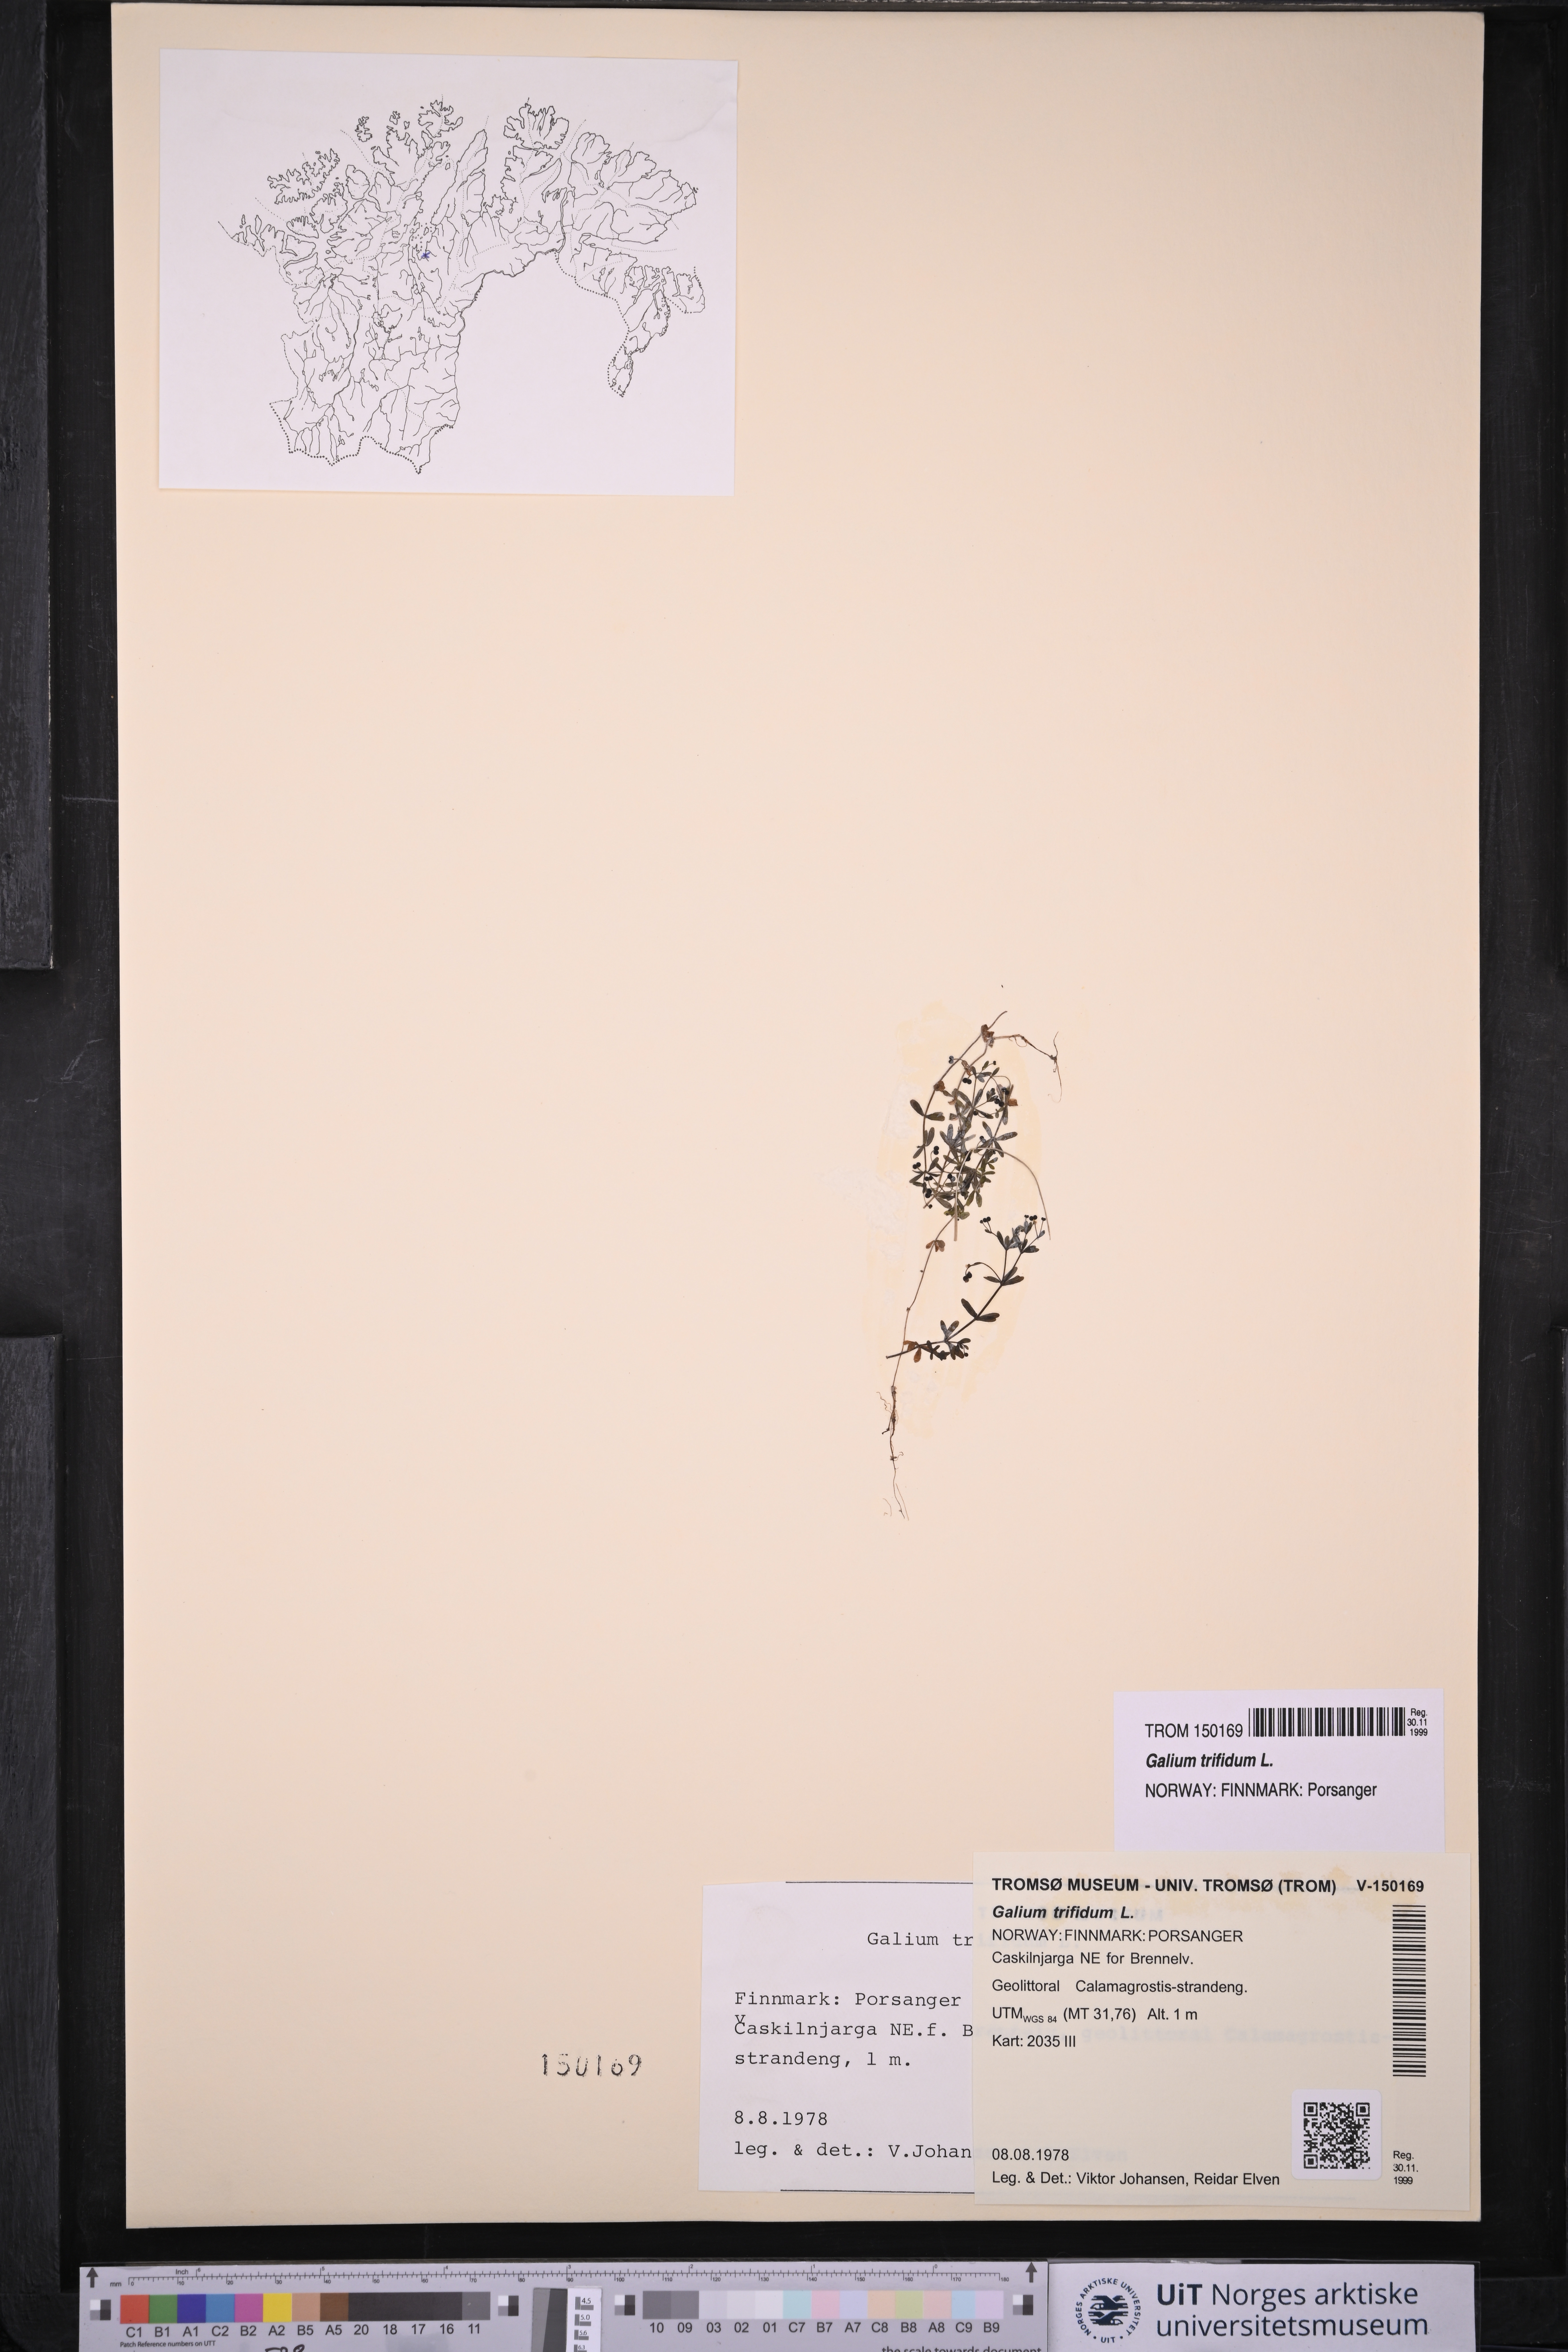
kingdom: Plantae
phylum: Tracheophyta
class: Magnoliopsida
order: Gentianales
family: Rubiaceae
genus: Galium
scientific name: Galium trifidum
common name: Small bedstraw
